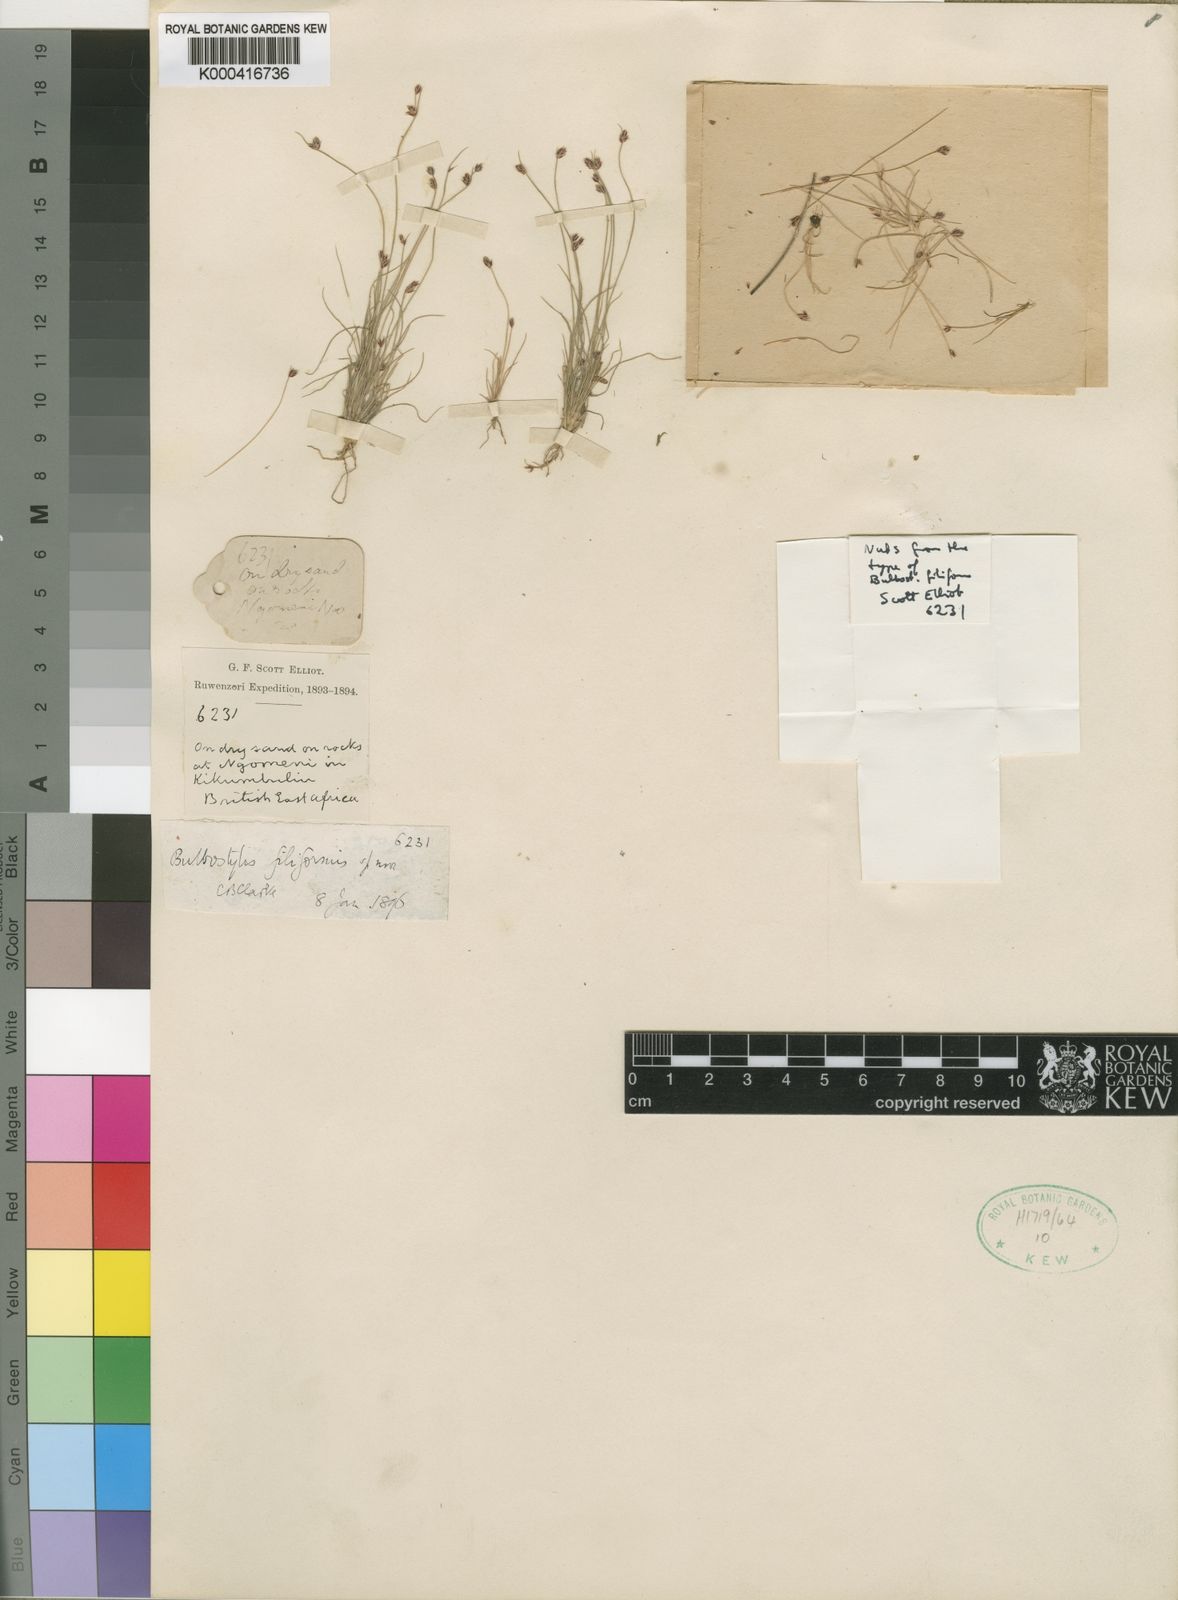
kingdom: Plantae
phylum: Tracheophyta
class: Liliopsida
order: Poales
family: Cyperaceae
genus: Bulbostylis
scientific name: Bulbostylis hispidula
